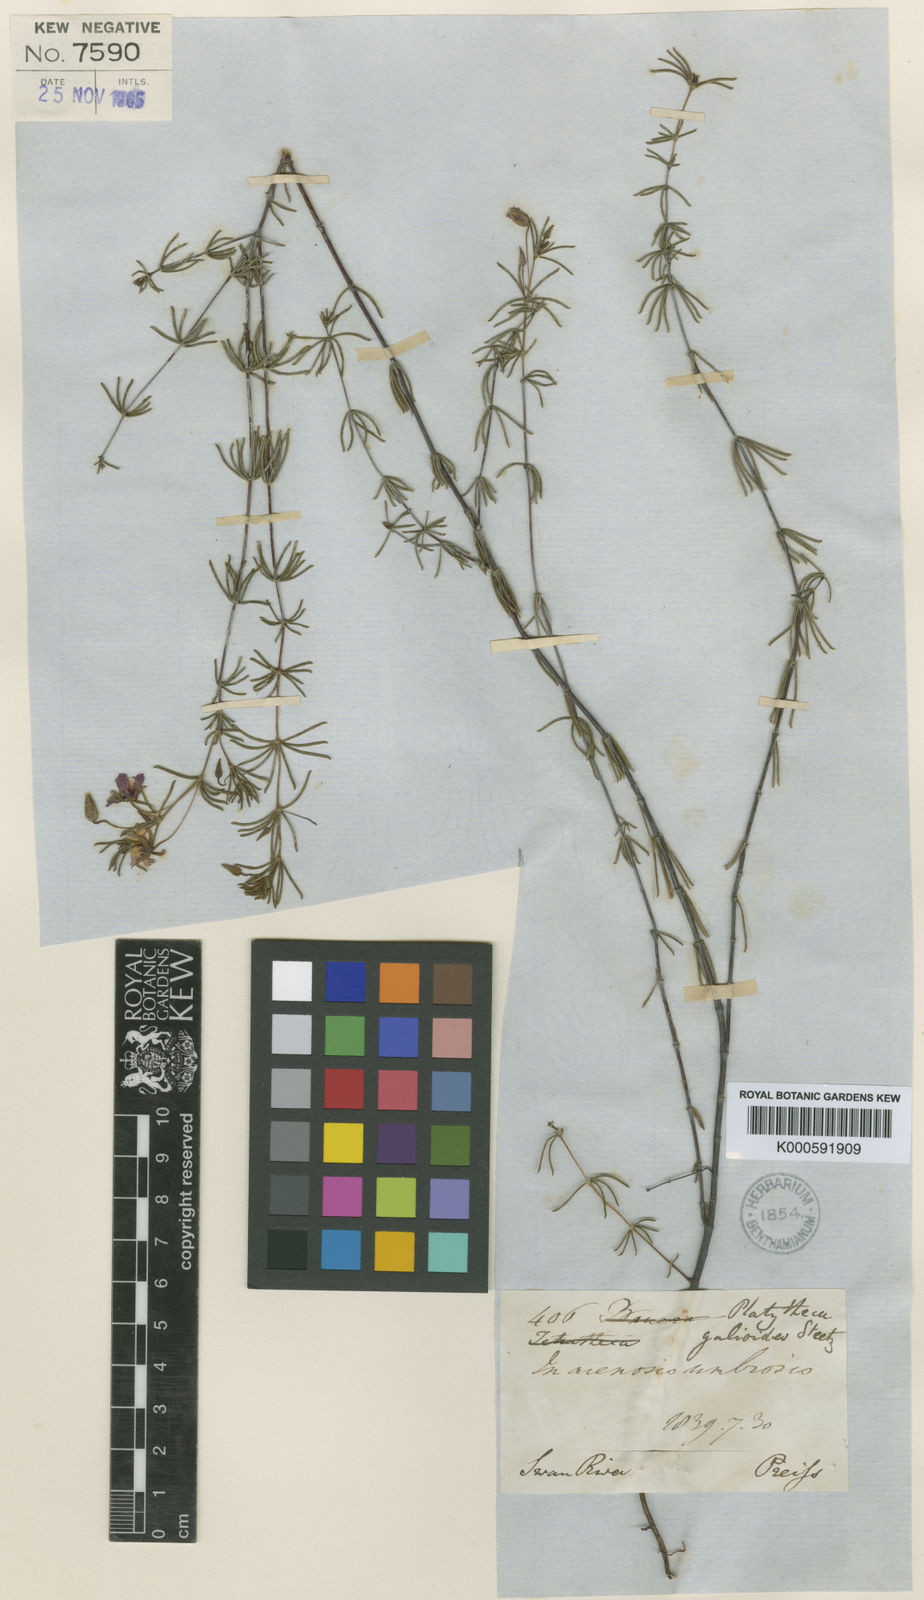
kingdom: Plantae
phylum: Tracheophyta
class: Magnoliopsida
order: Oxalidales
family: Elaeocarpaceae
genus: Platytheca
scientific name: Platytheca
